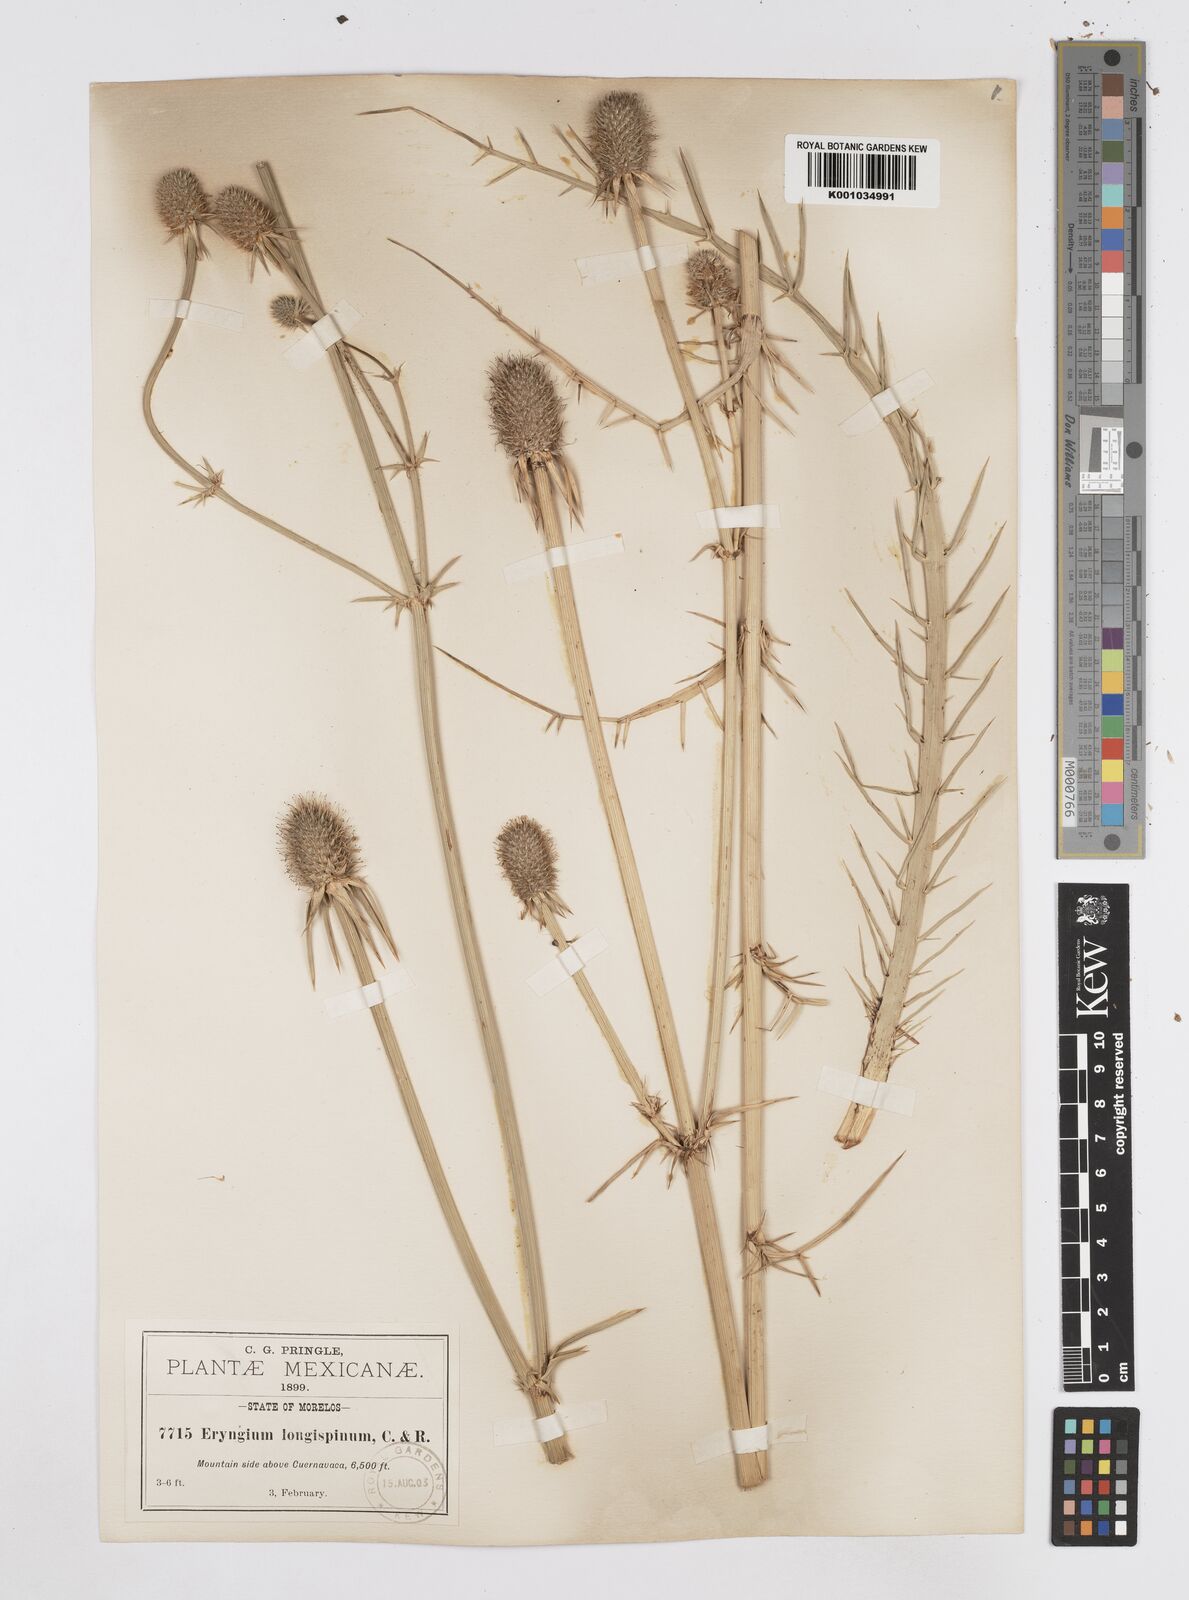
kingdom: Plantae
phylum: Tracheophyta
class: Magnoliopsida
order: Apiales
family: Apiaceae
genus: Eryngium
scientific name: Eryngium pectinatum
